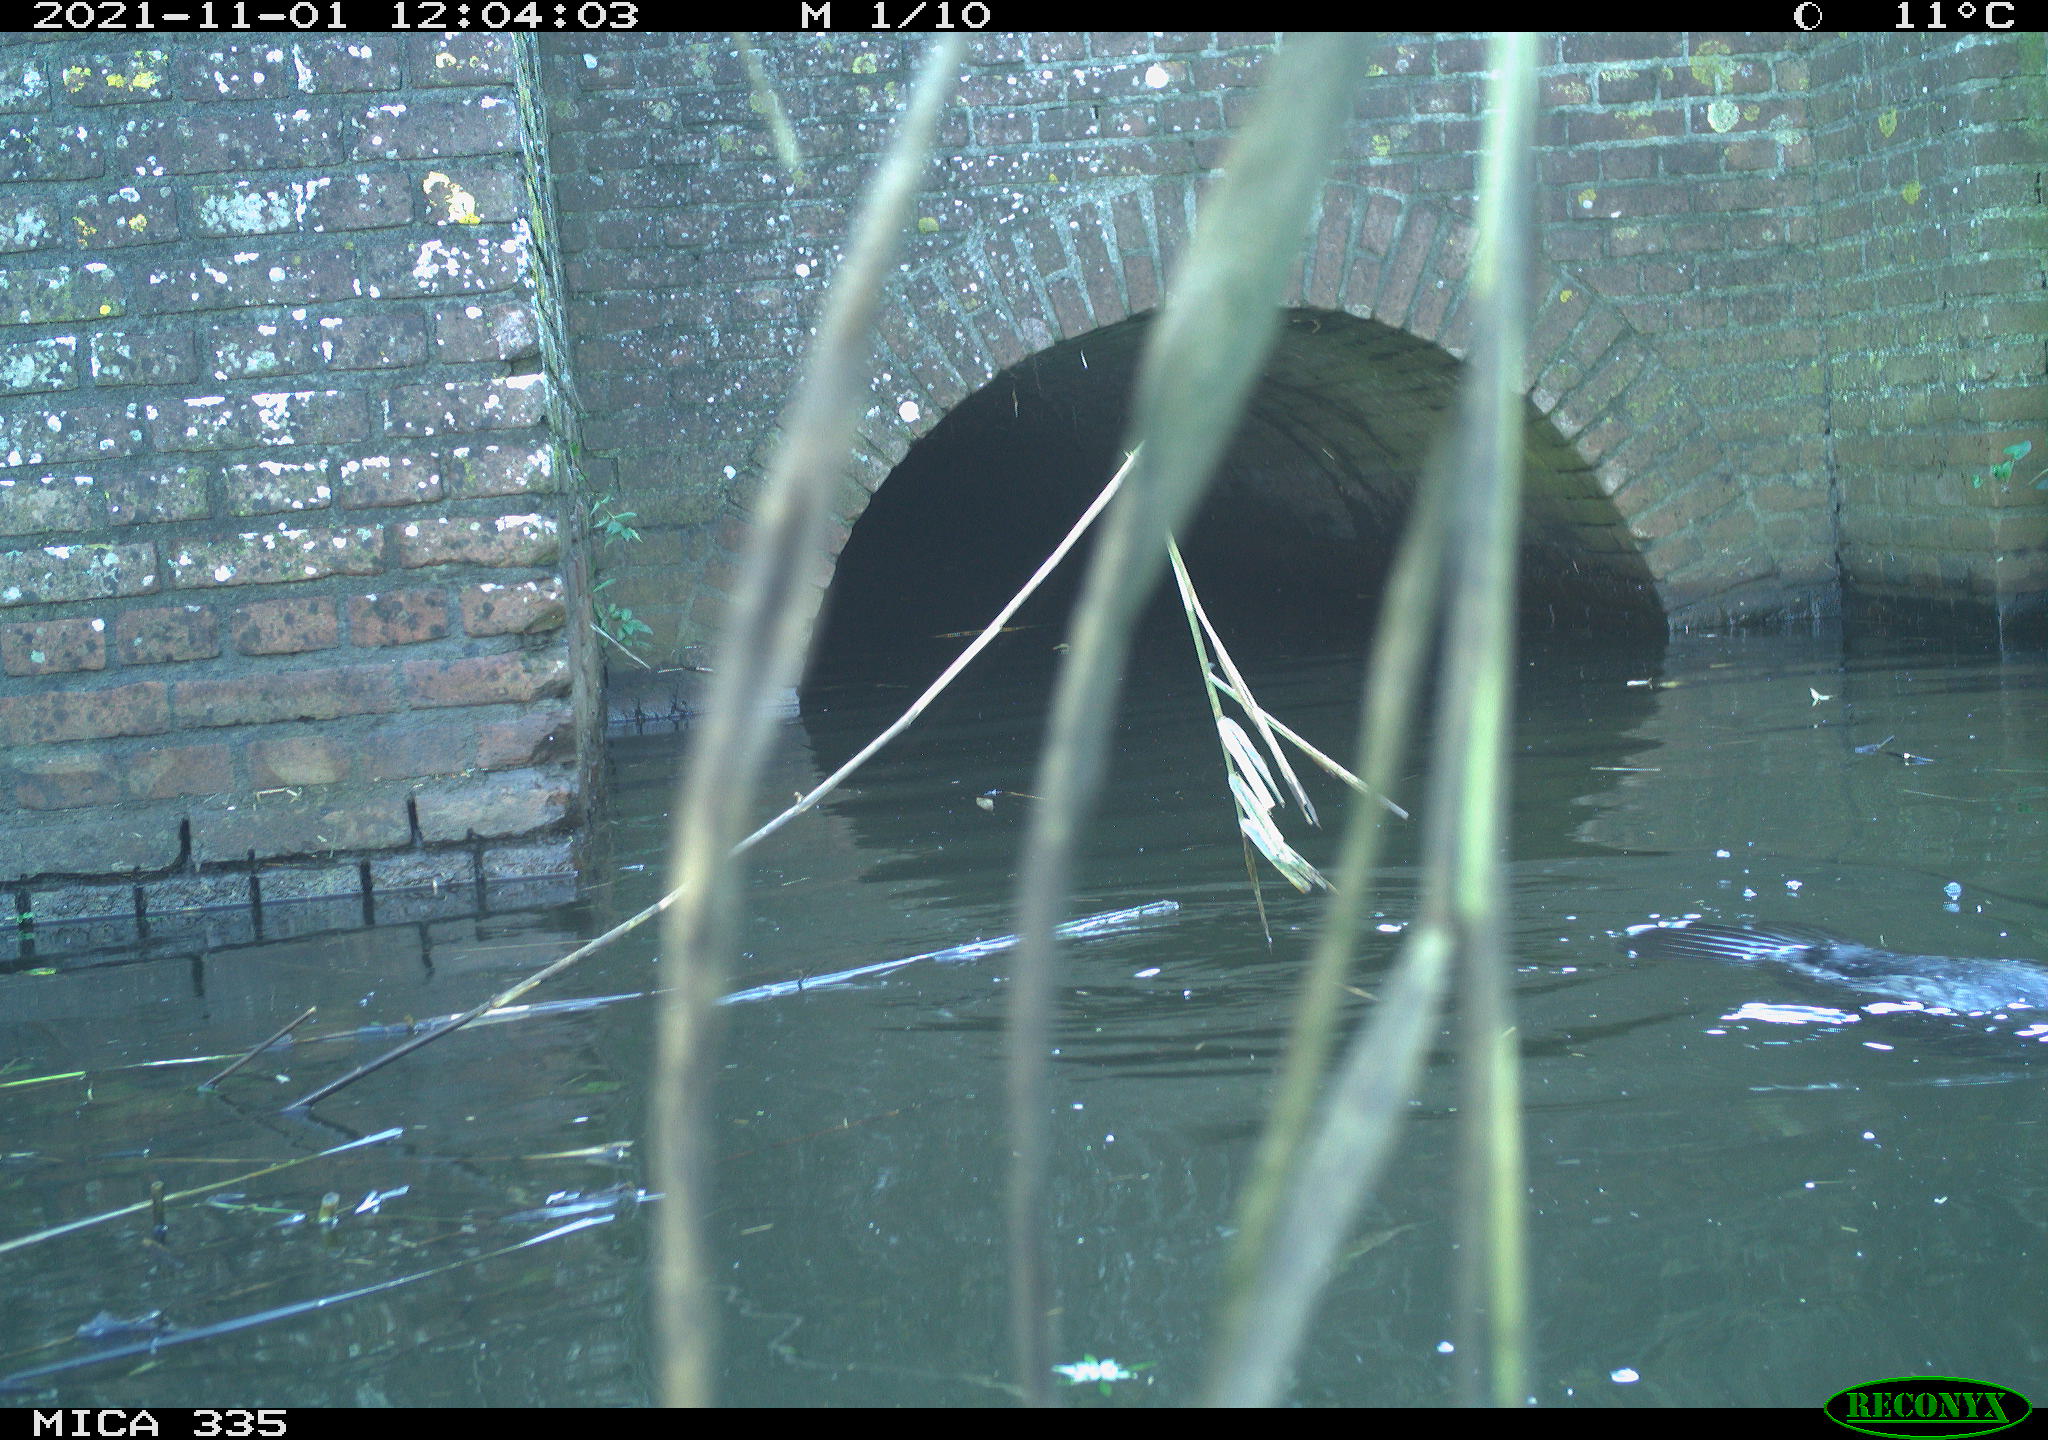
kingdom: Animalia
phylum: Chordata
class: Aves
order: Suliformes
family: Phalacrocoracidae
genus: Phalacrocorax
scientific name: Phalacrocorax carbo
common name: Great cormorant
